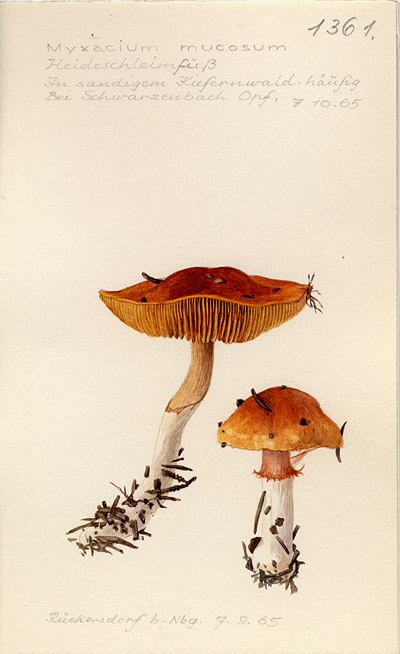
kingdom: Fungi
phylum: Basidiomycota
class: Agaricomycetes
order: Agaricales
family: Cortinariaceae
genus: Cortinarius
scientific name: Cortinarius
